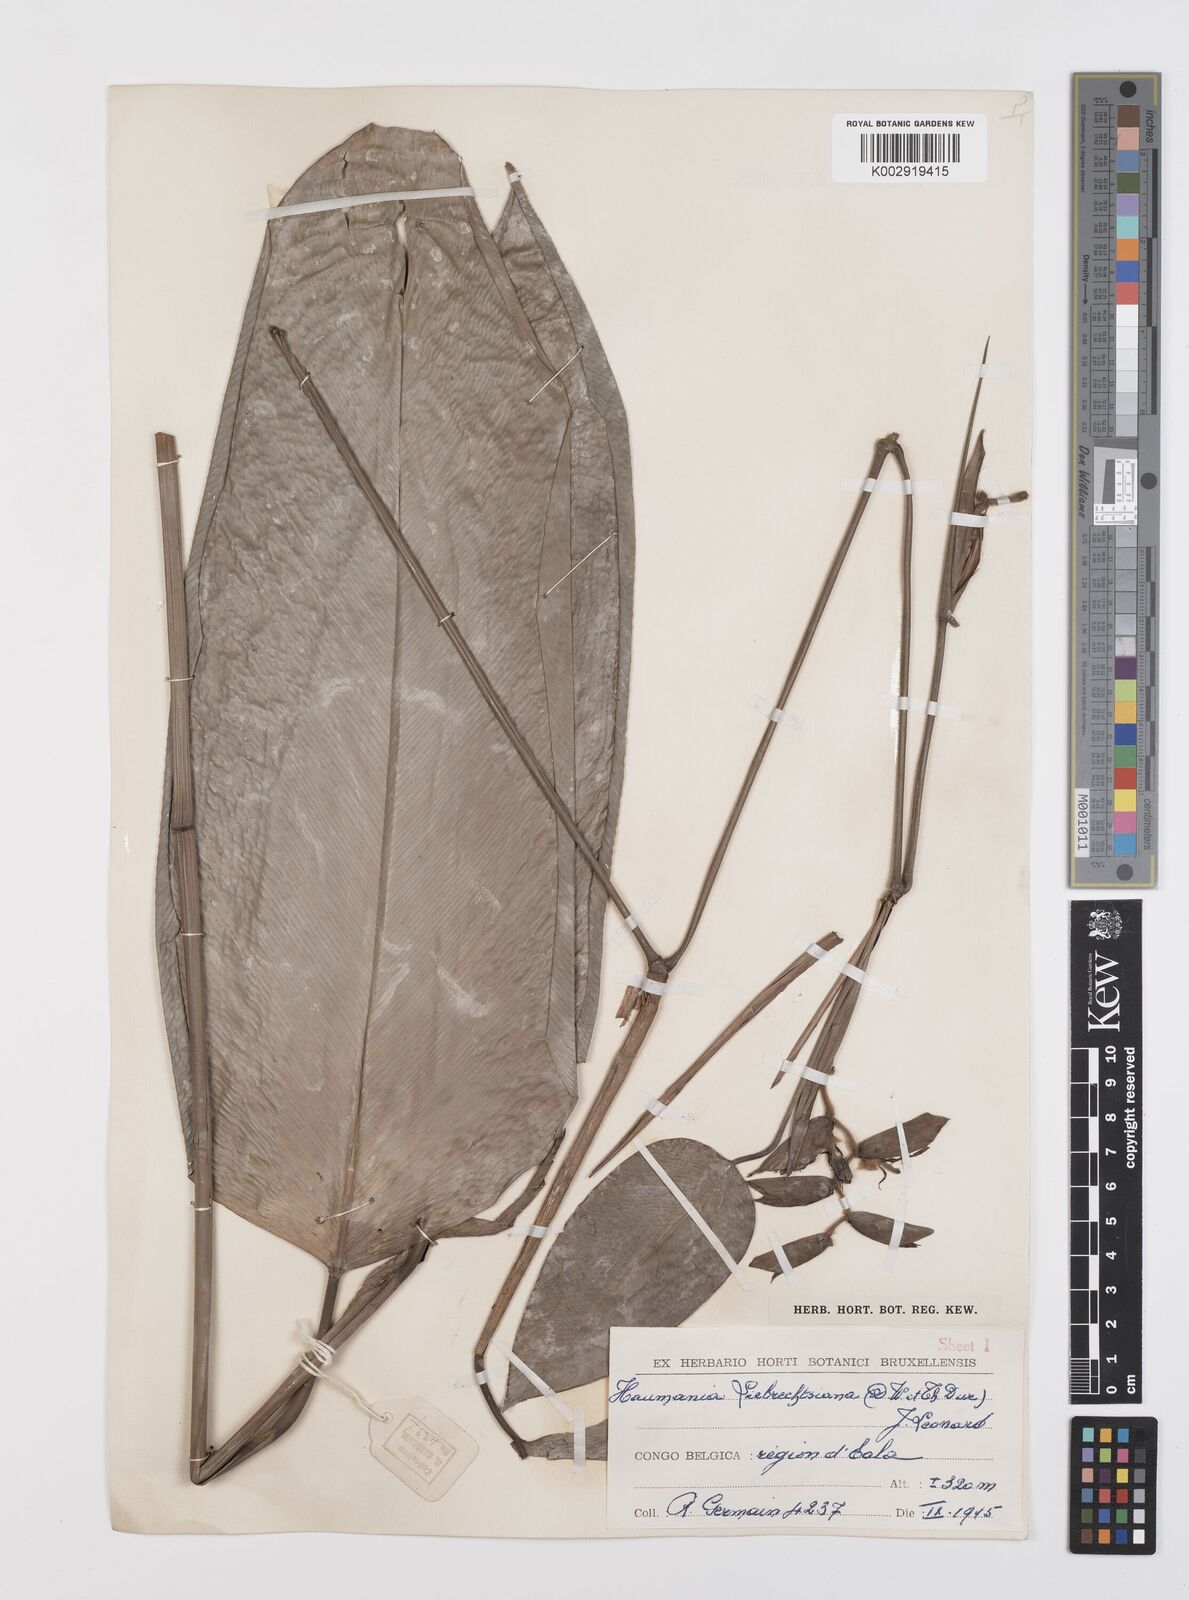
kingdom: Plantae
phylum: Tracheophyta
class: Liliopsida
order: Zingiberales
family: Marantaceae
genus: Haumania
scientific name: Haumania liebrechtsiana
